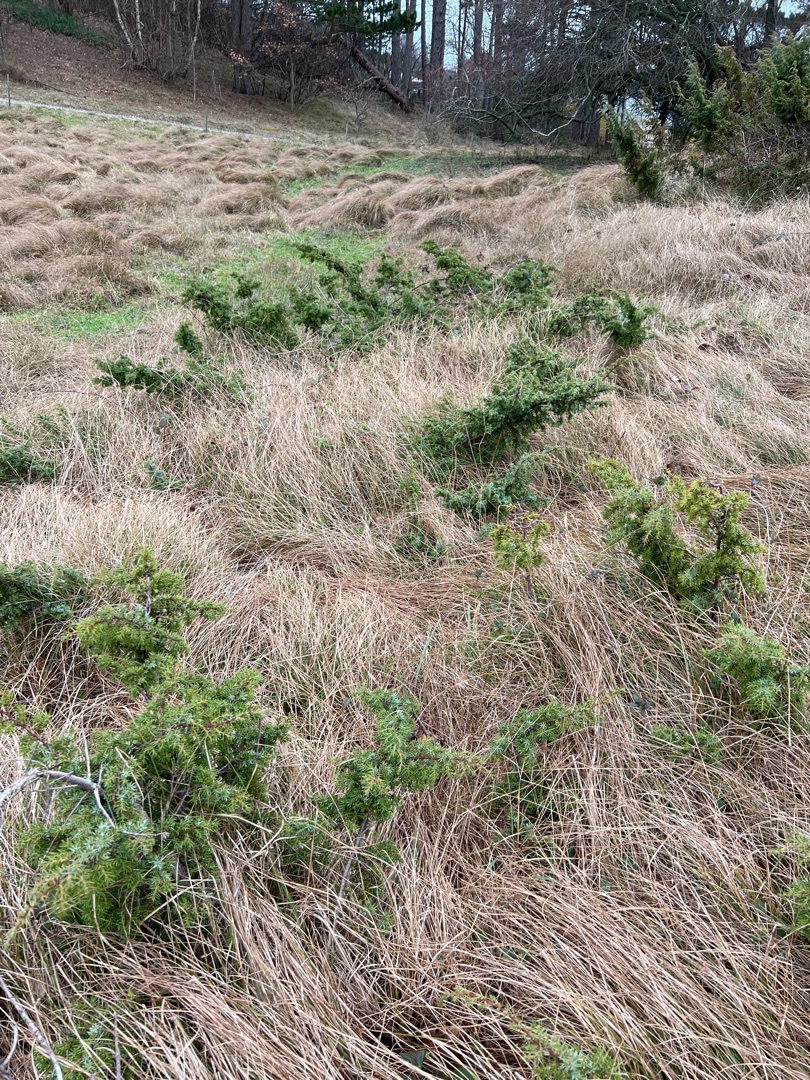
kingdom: Plantae
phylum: Tracheophyta
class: Pinopsida
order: Pinales
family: Cupressaceae
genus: Juniperus
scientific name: Juniperus communis
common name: Almindelig ene
